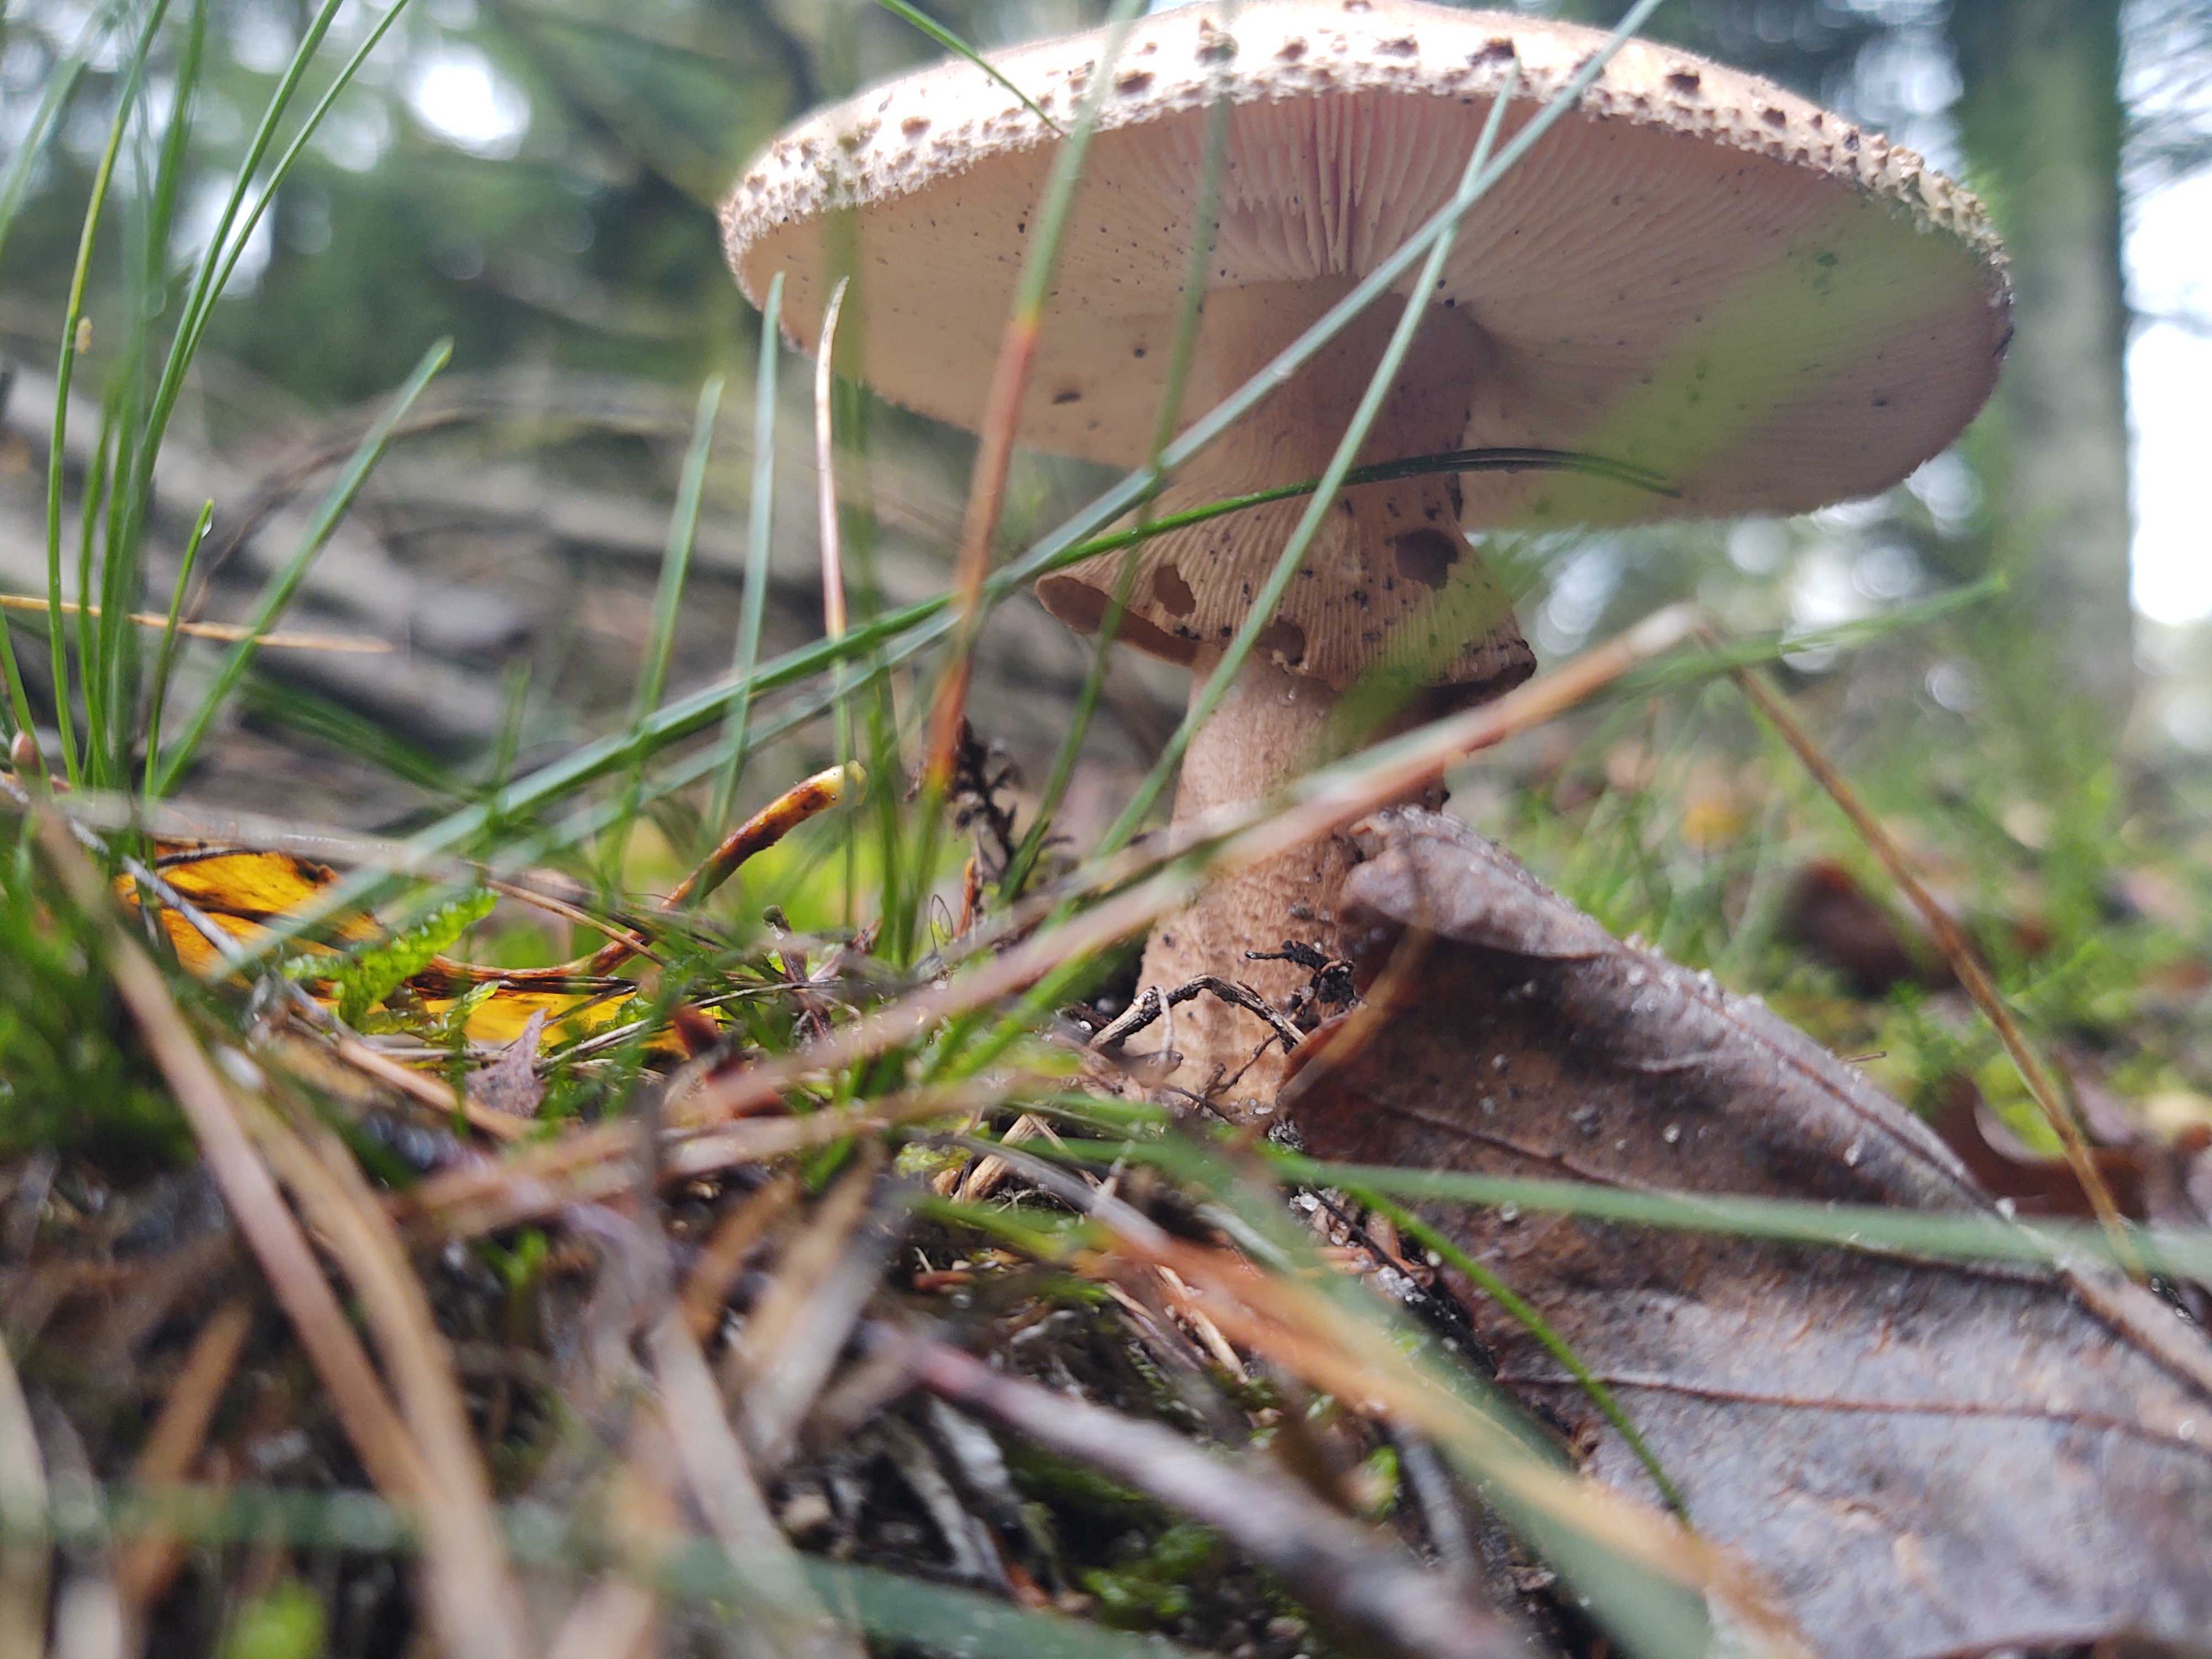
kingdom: Fungi
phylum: Basidiomycota
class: Agaricomycetes
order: Agaricales
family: Amanitaceae
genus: Amanita
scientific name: Amanita rubescens
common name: rødmende fluesvamp
